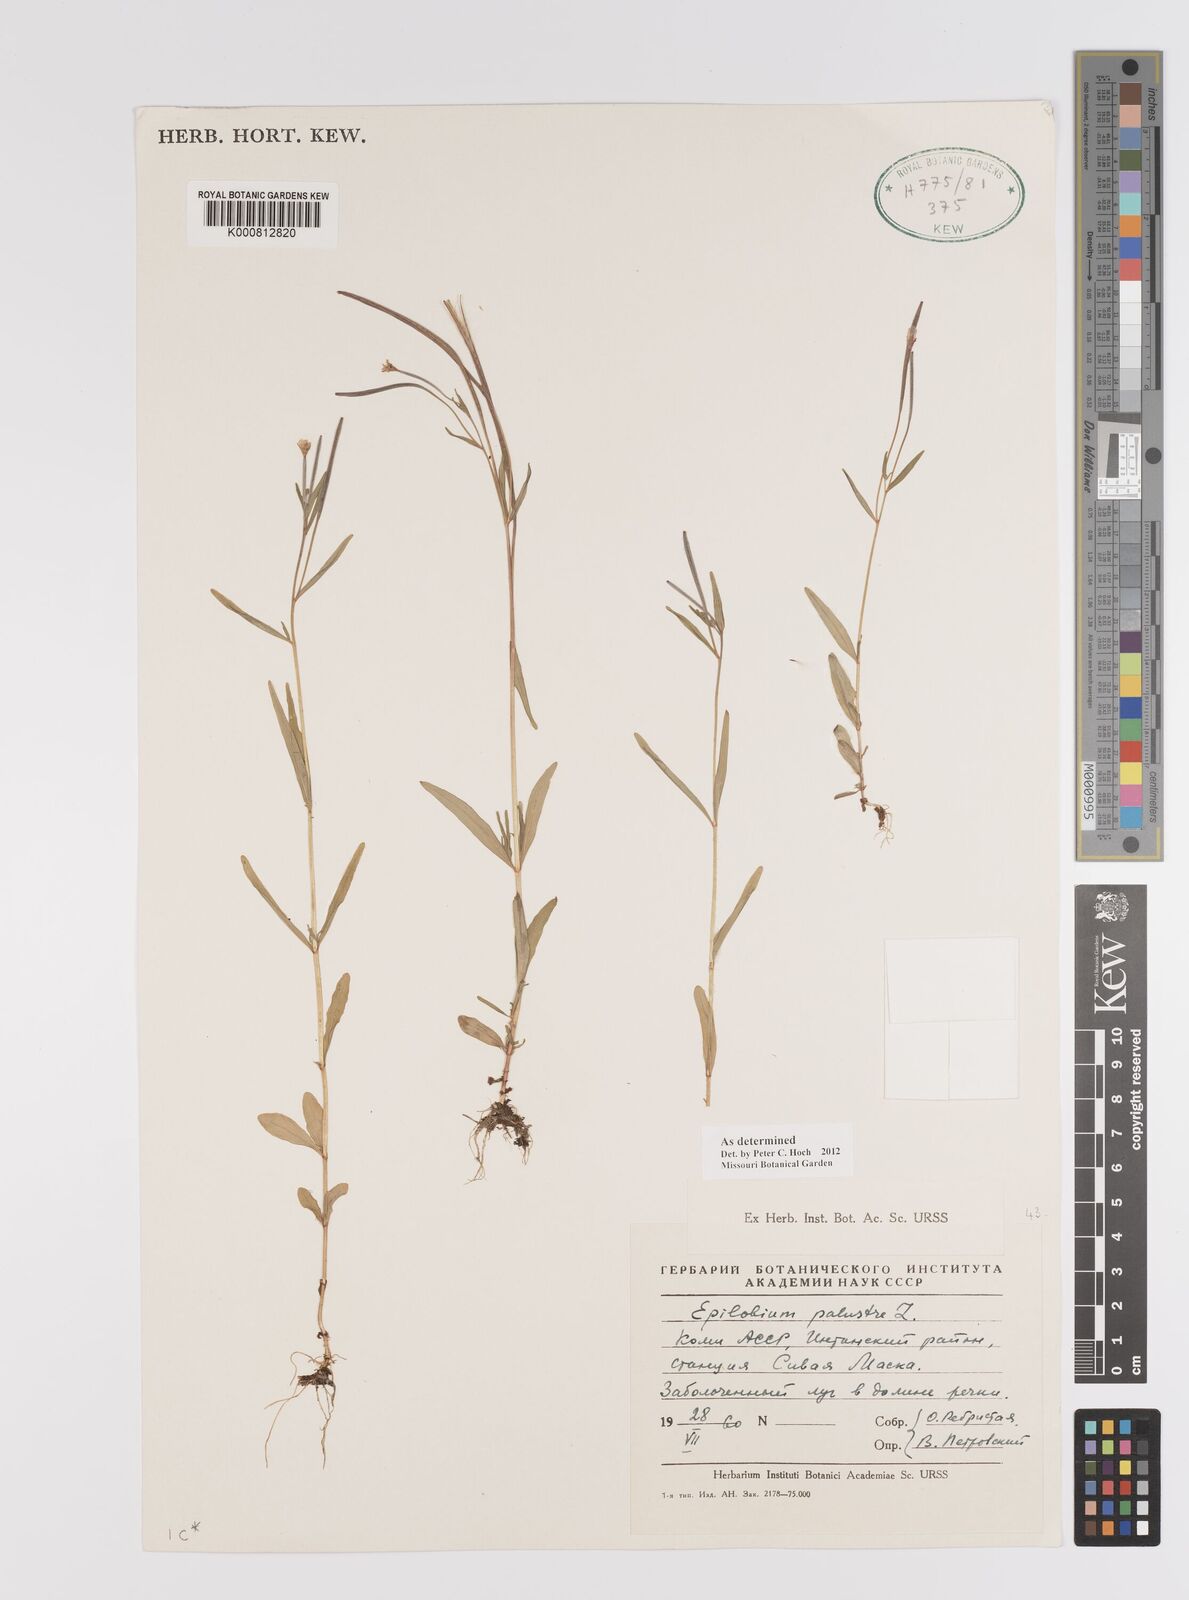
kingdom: Plantae
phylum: Tracheophyta
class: Magnoliopsida
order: Myrtales
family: Onagraceae
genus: Epilobium
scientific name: Epilobium palustre
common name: Marsh willowherb
